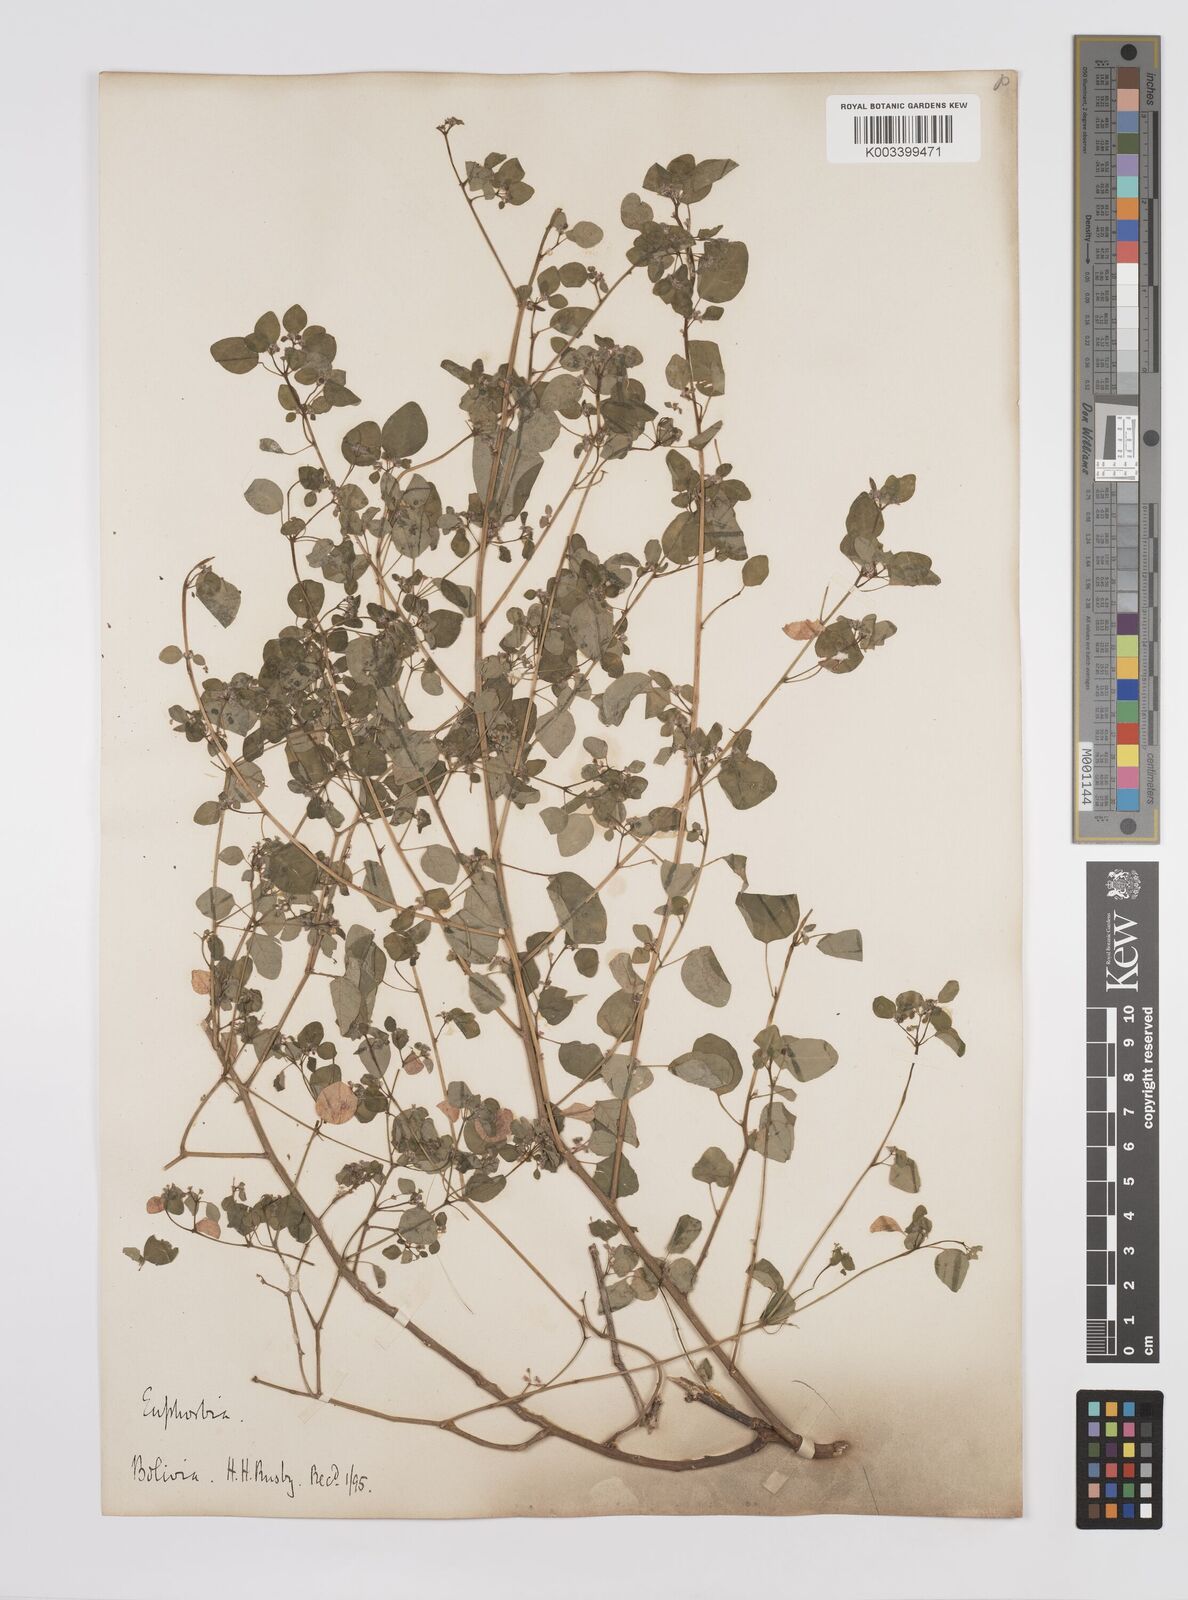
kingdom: Plantae
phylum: Tracheophyta
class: Magnoliopsida
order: Malpighiales
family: Euphorbiaceae
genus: Euphorbia
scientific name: Euphorbia
